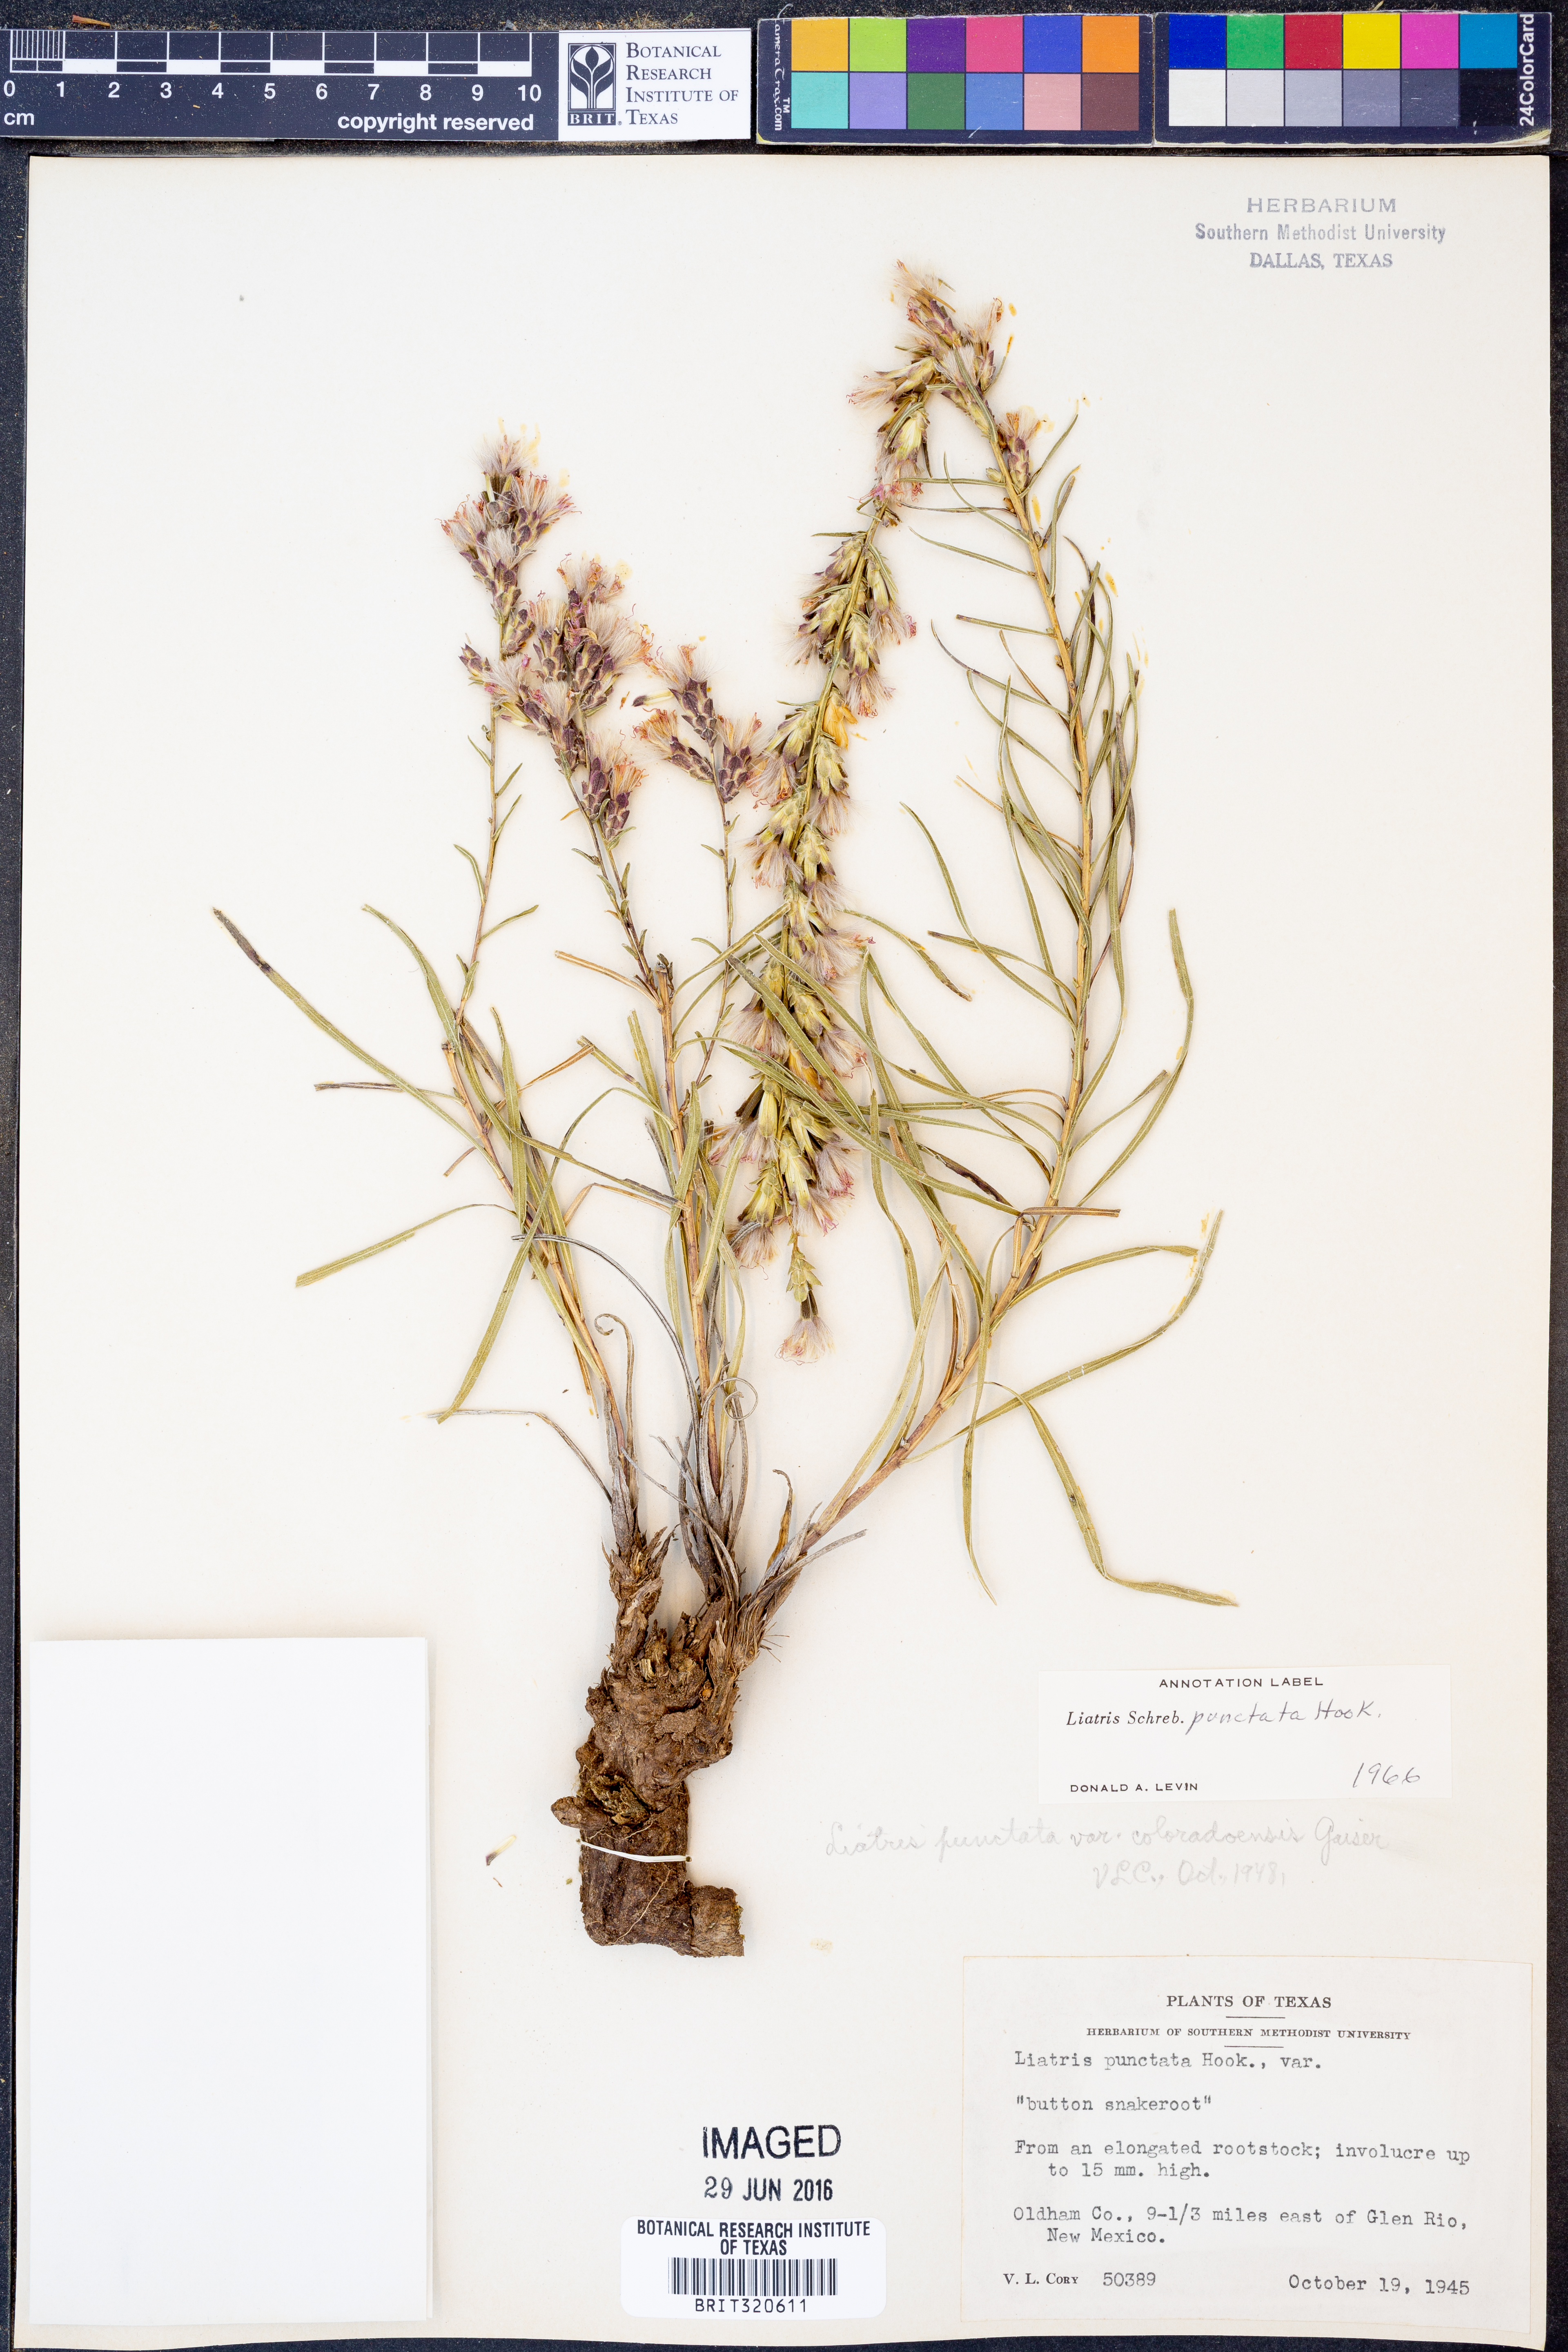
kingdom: Plantae
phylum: Tracheophyta
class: Magnoliopsida
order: Asterales
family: Asteraceae
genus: Liatris
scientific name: Liatris punctata
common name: Dotted gayfeather
